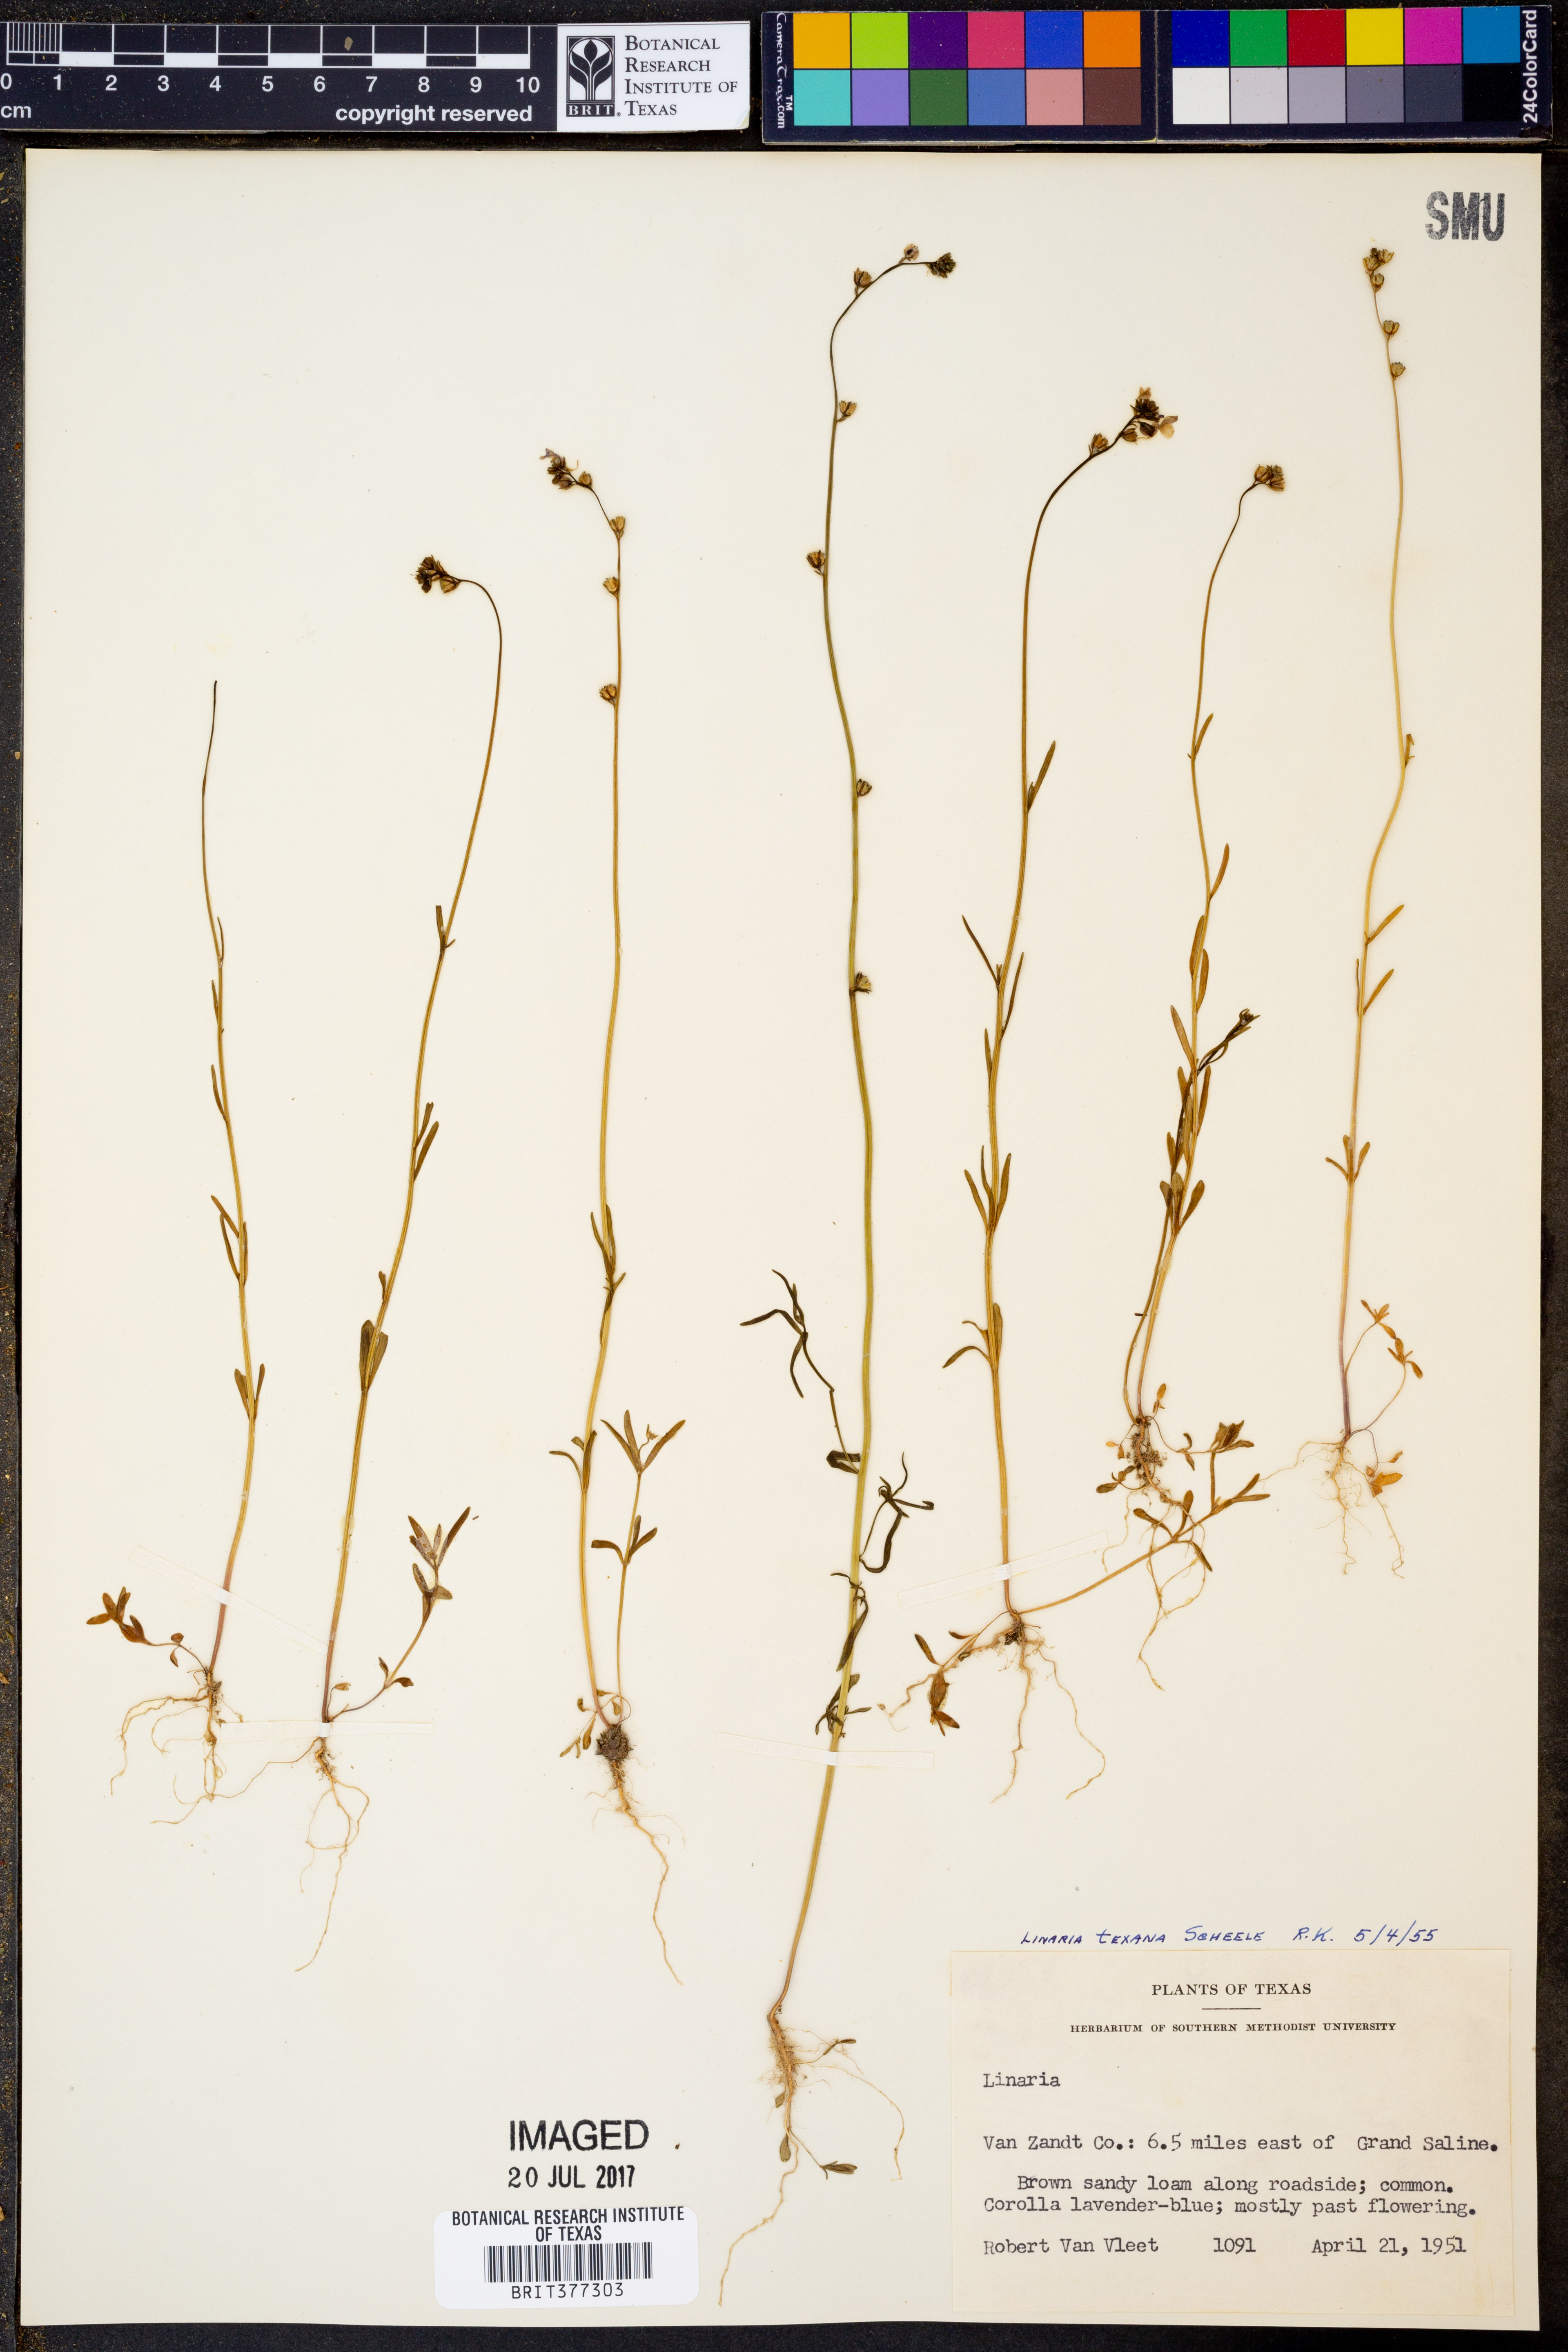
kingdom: Plantae
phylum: Tracheophyta
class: Magnoliopsida
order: Lamiales
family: Plantaginaceae
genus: Nuttallanthus
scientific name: Nuttallanthus texanus
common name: Texas toadflax
